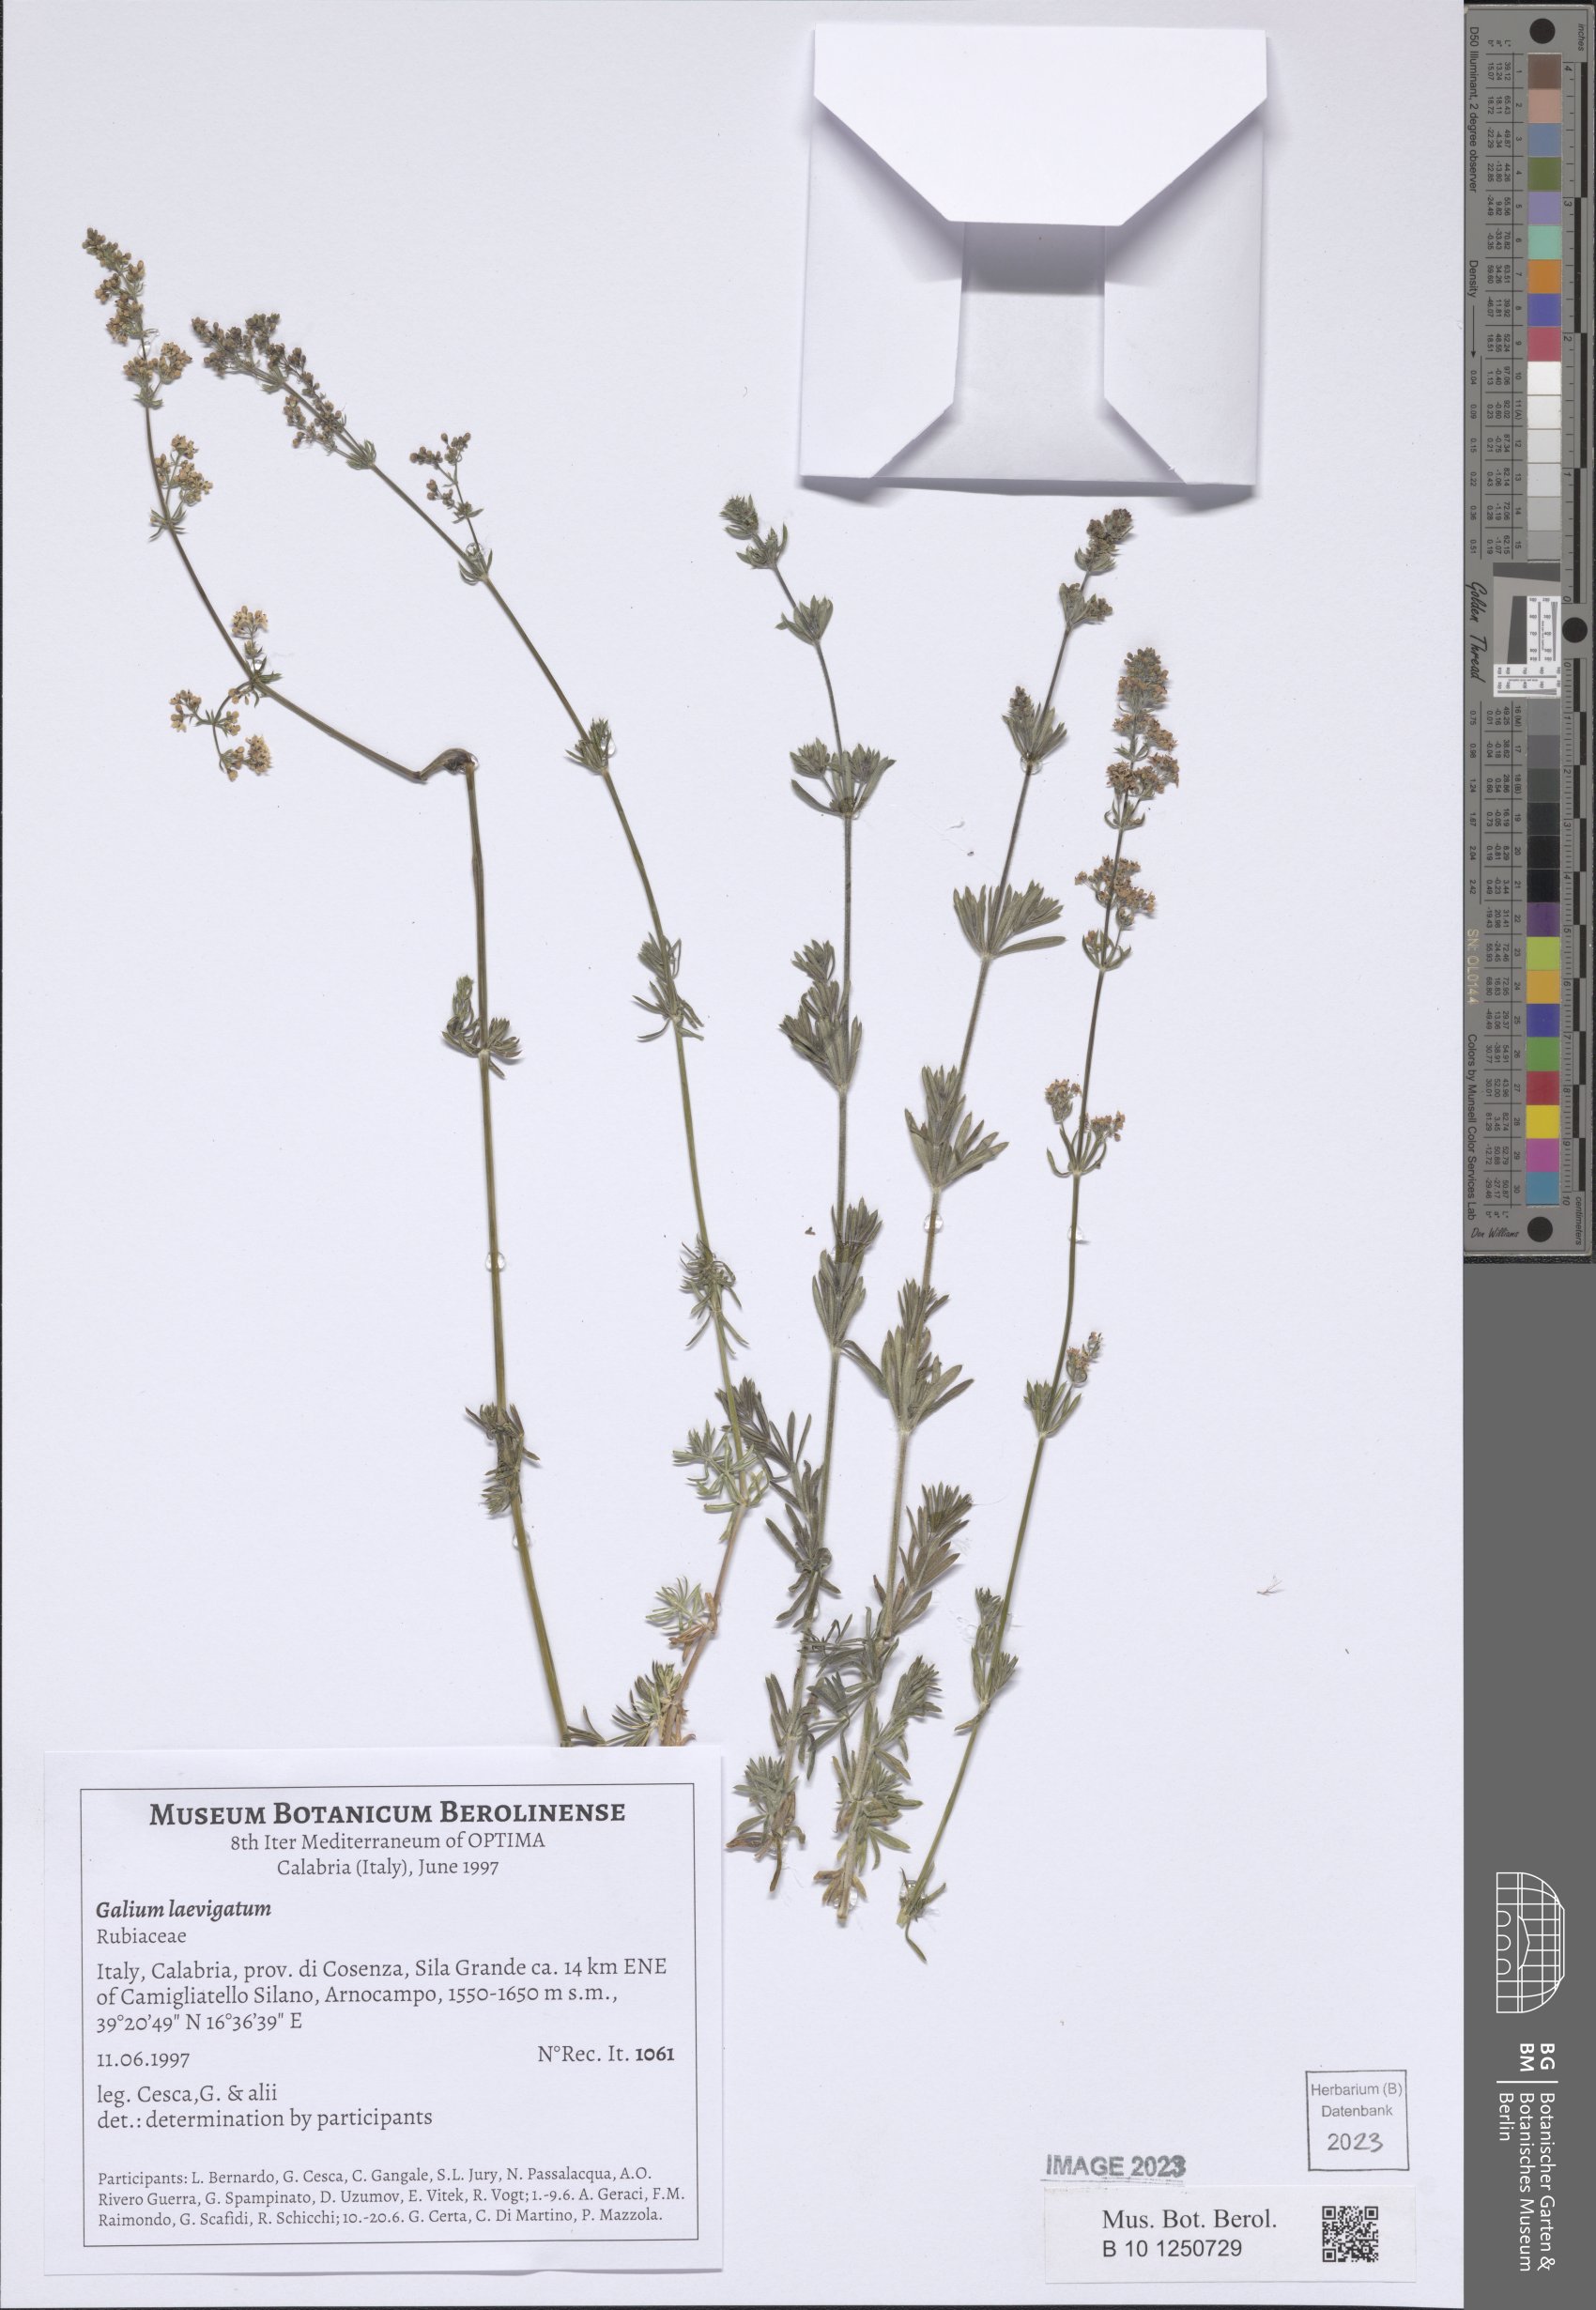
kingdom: Plantae
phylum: Tracheophyta
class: Magnoliopsida
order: Gentianales
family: Rubiaceae
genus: Galium
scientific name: Galium laevigatum
